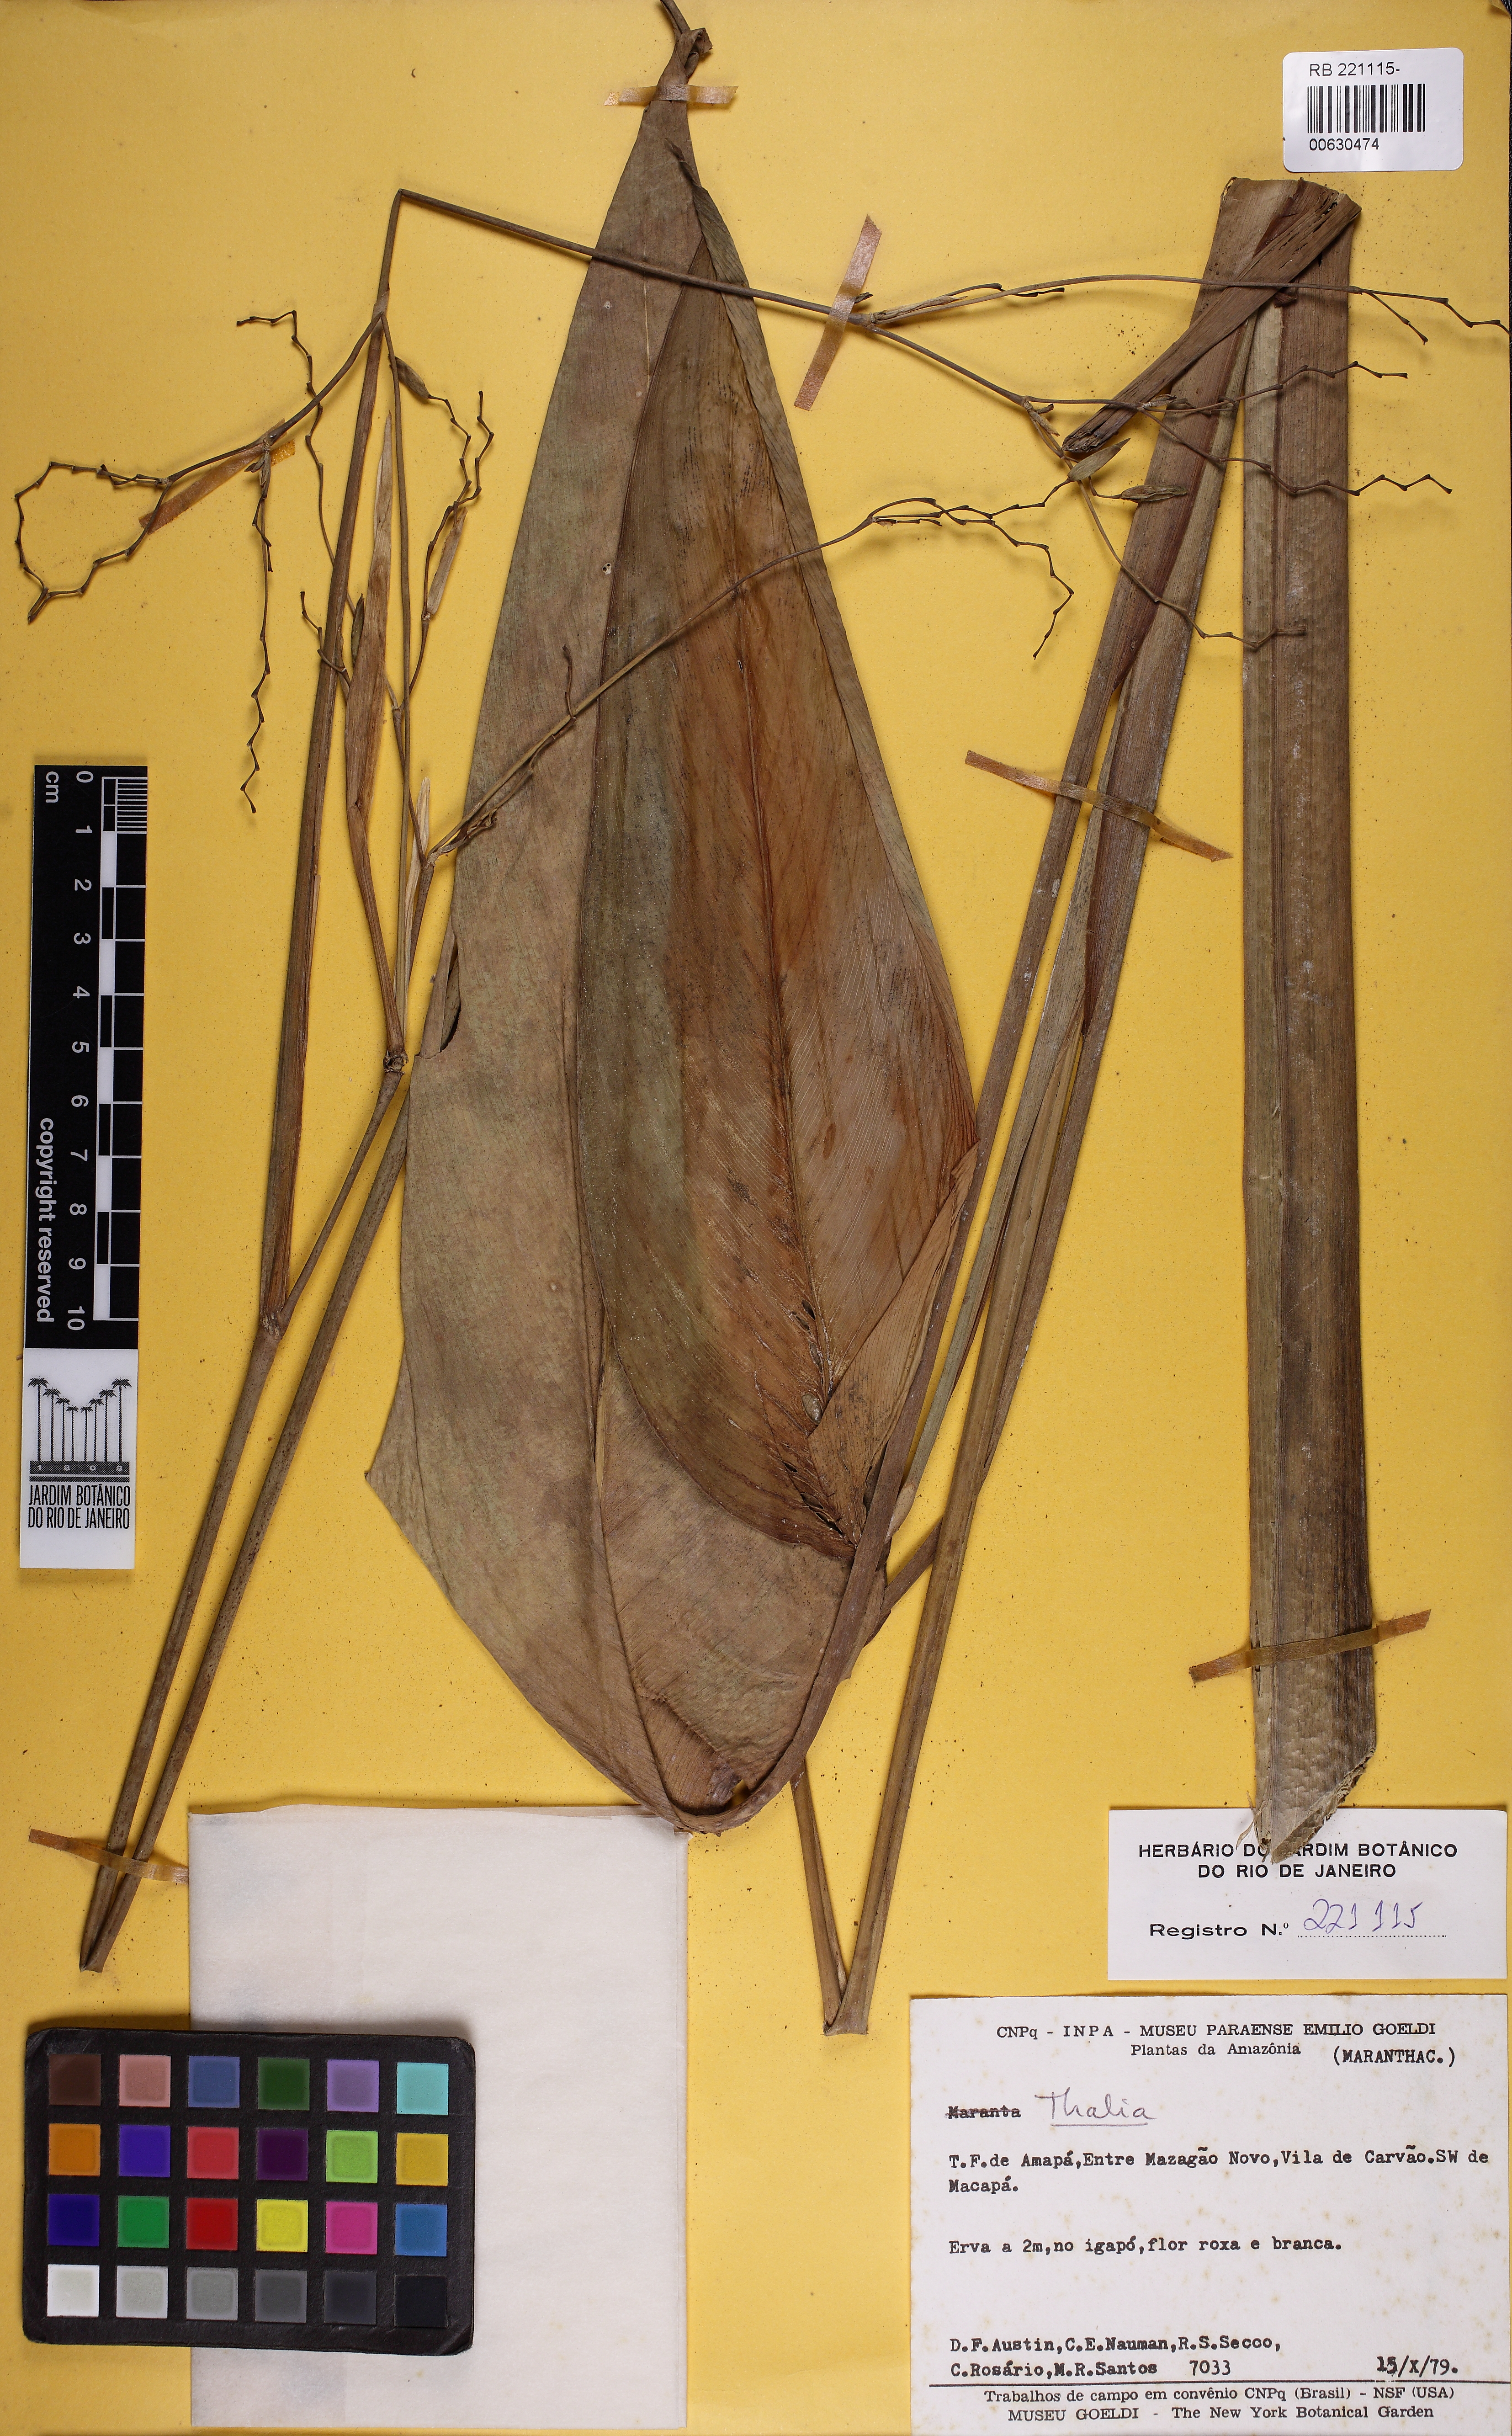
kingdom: Plantae
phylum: Tracheophyta
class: Liliopsida
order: Zingiberales
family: Marantaceae
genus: Thalia
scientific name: Thalia
